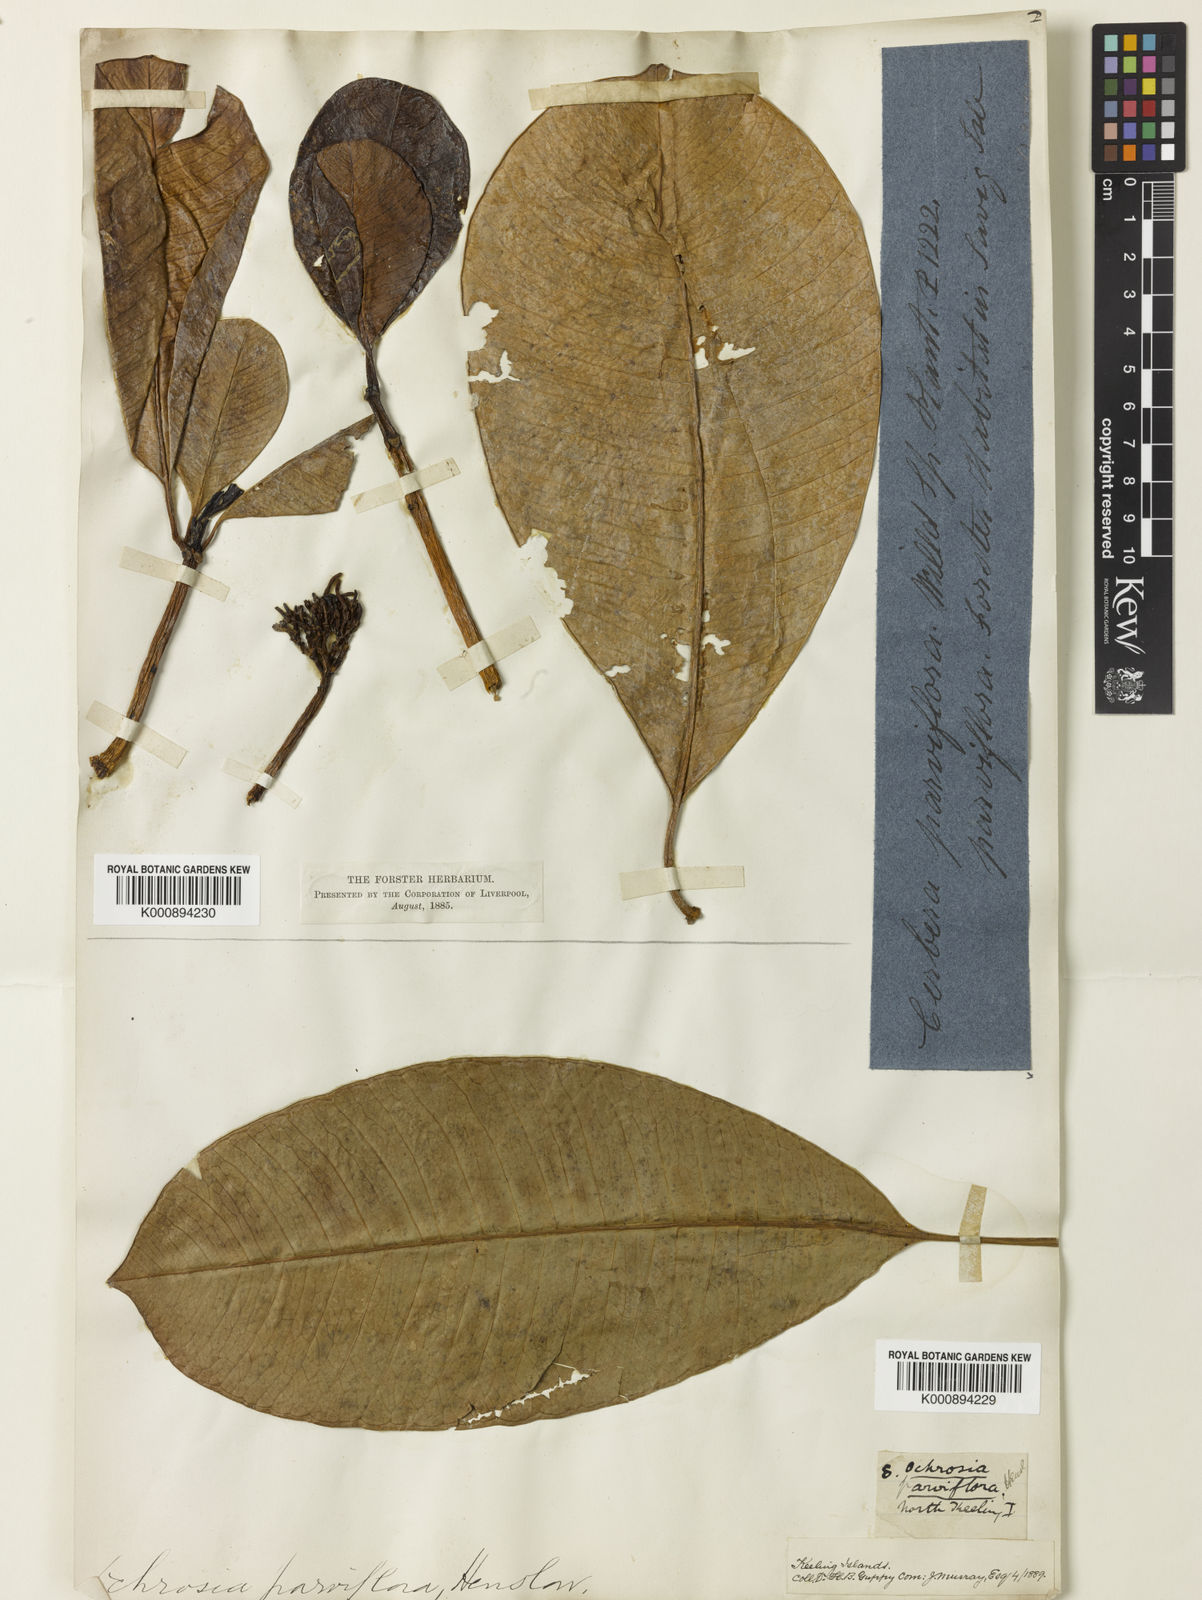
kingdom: Plantae
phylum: Tracheophyta
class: Magnoliopsida
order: Gentianales
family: Apocynaceae
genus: Ochrosia
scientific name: Ochrosia oppositifolia
